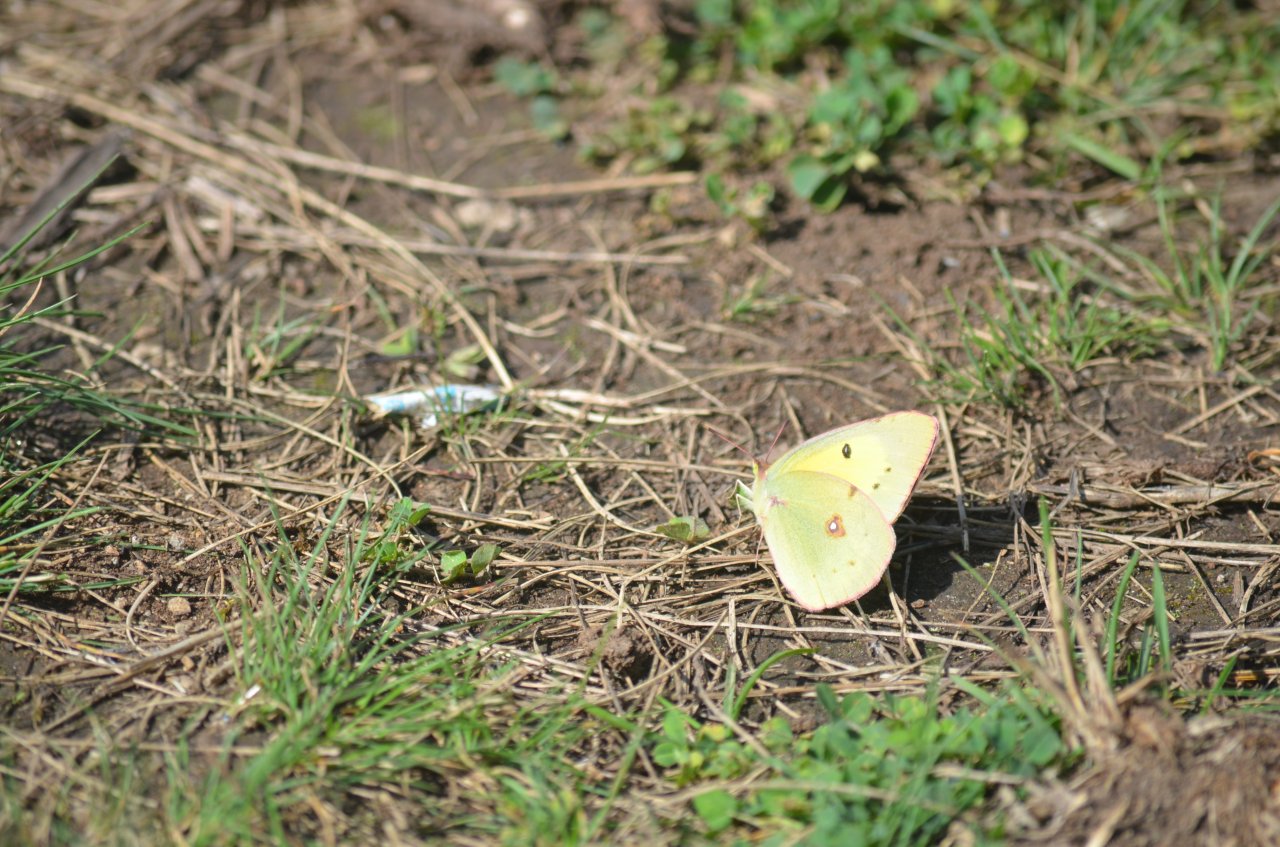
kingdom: Animalia
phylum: Arthropoda
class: Insecta
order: Lepidoptera
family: Pieridae
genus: Colias
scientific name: Colias eurytheme
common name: Orange Sulphur
